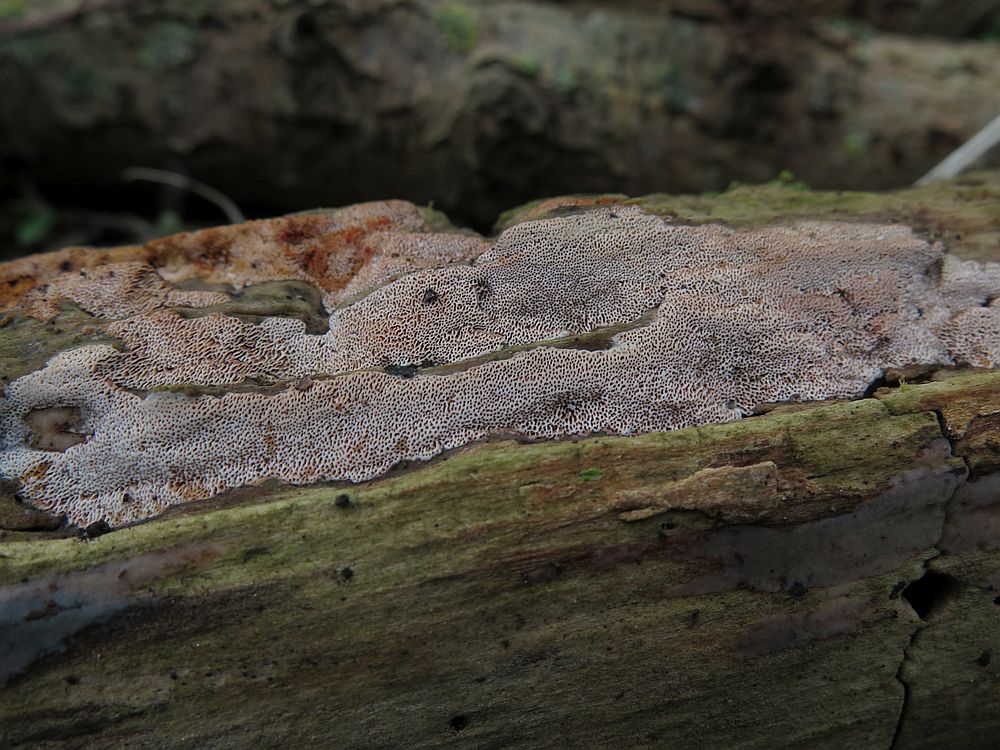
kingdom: Fungi
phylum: Basidiomycota
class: Agaricomycetes
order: Polyporales
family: Irpicaceae
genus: Ceriporia
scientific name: Ceriporia purpurea
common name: purpur-voksporesvamp
